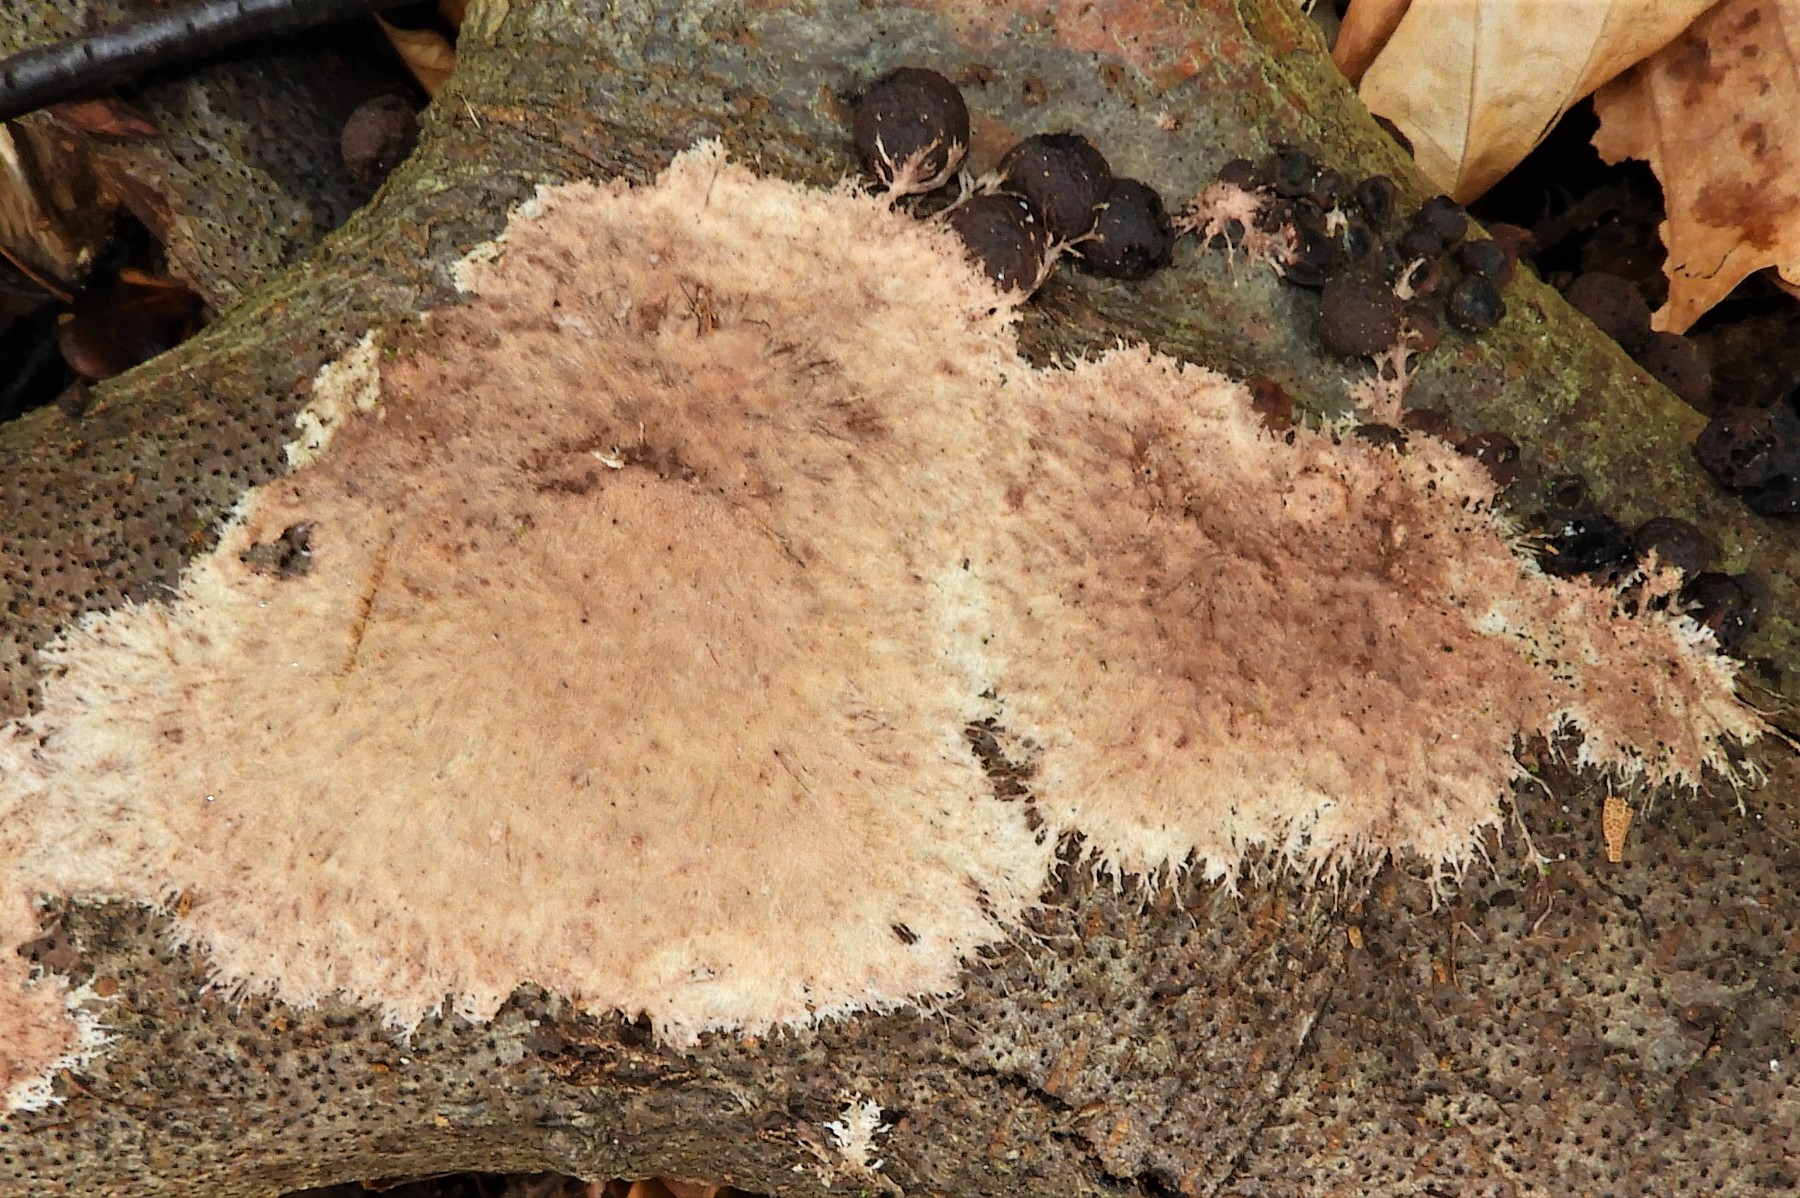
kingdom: Fungi
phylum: Basidiomycota
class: Agaricomycetes
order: Polyporales
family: Steccherinaceae
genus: Steccherinum
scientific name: Steccherinum fimbriatum
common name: trådet skønpig
